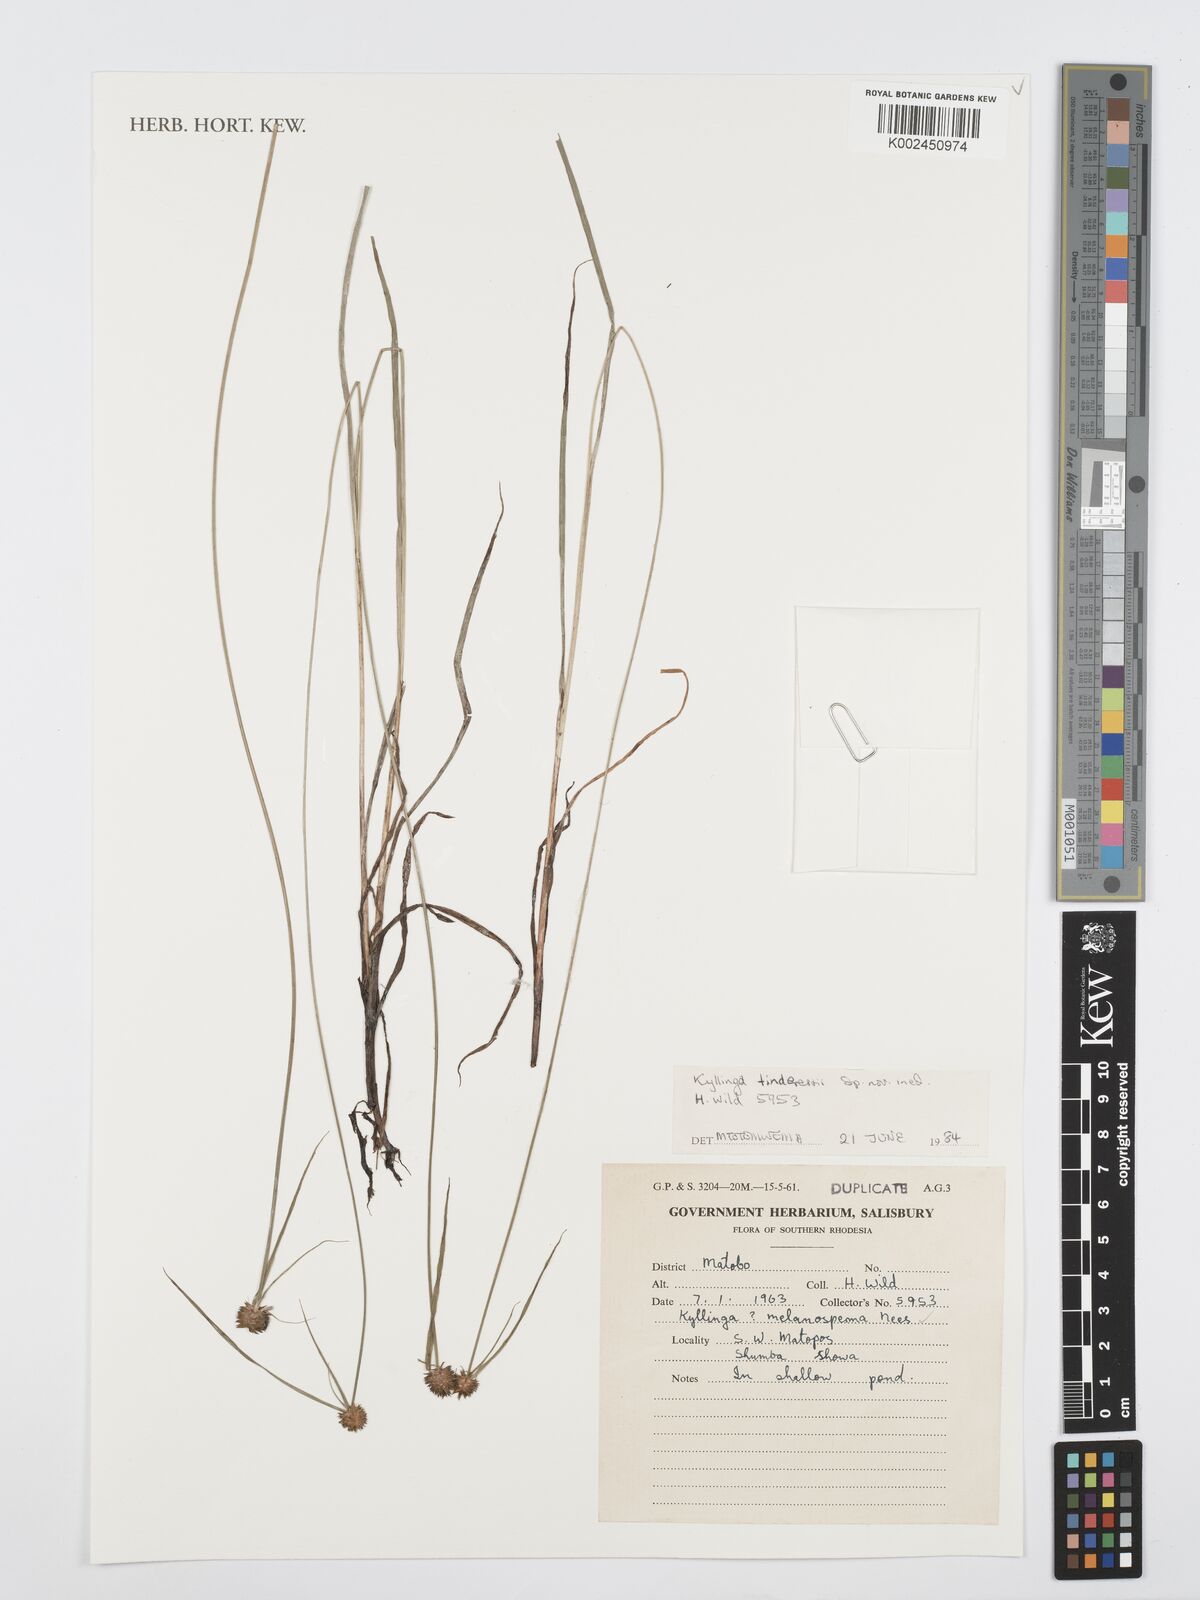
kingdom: Plantae
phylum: Tracheophyta
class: Liliopsida
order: Poales
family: Cyperaceae
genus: Cyperus
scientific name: Cyperus
